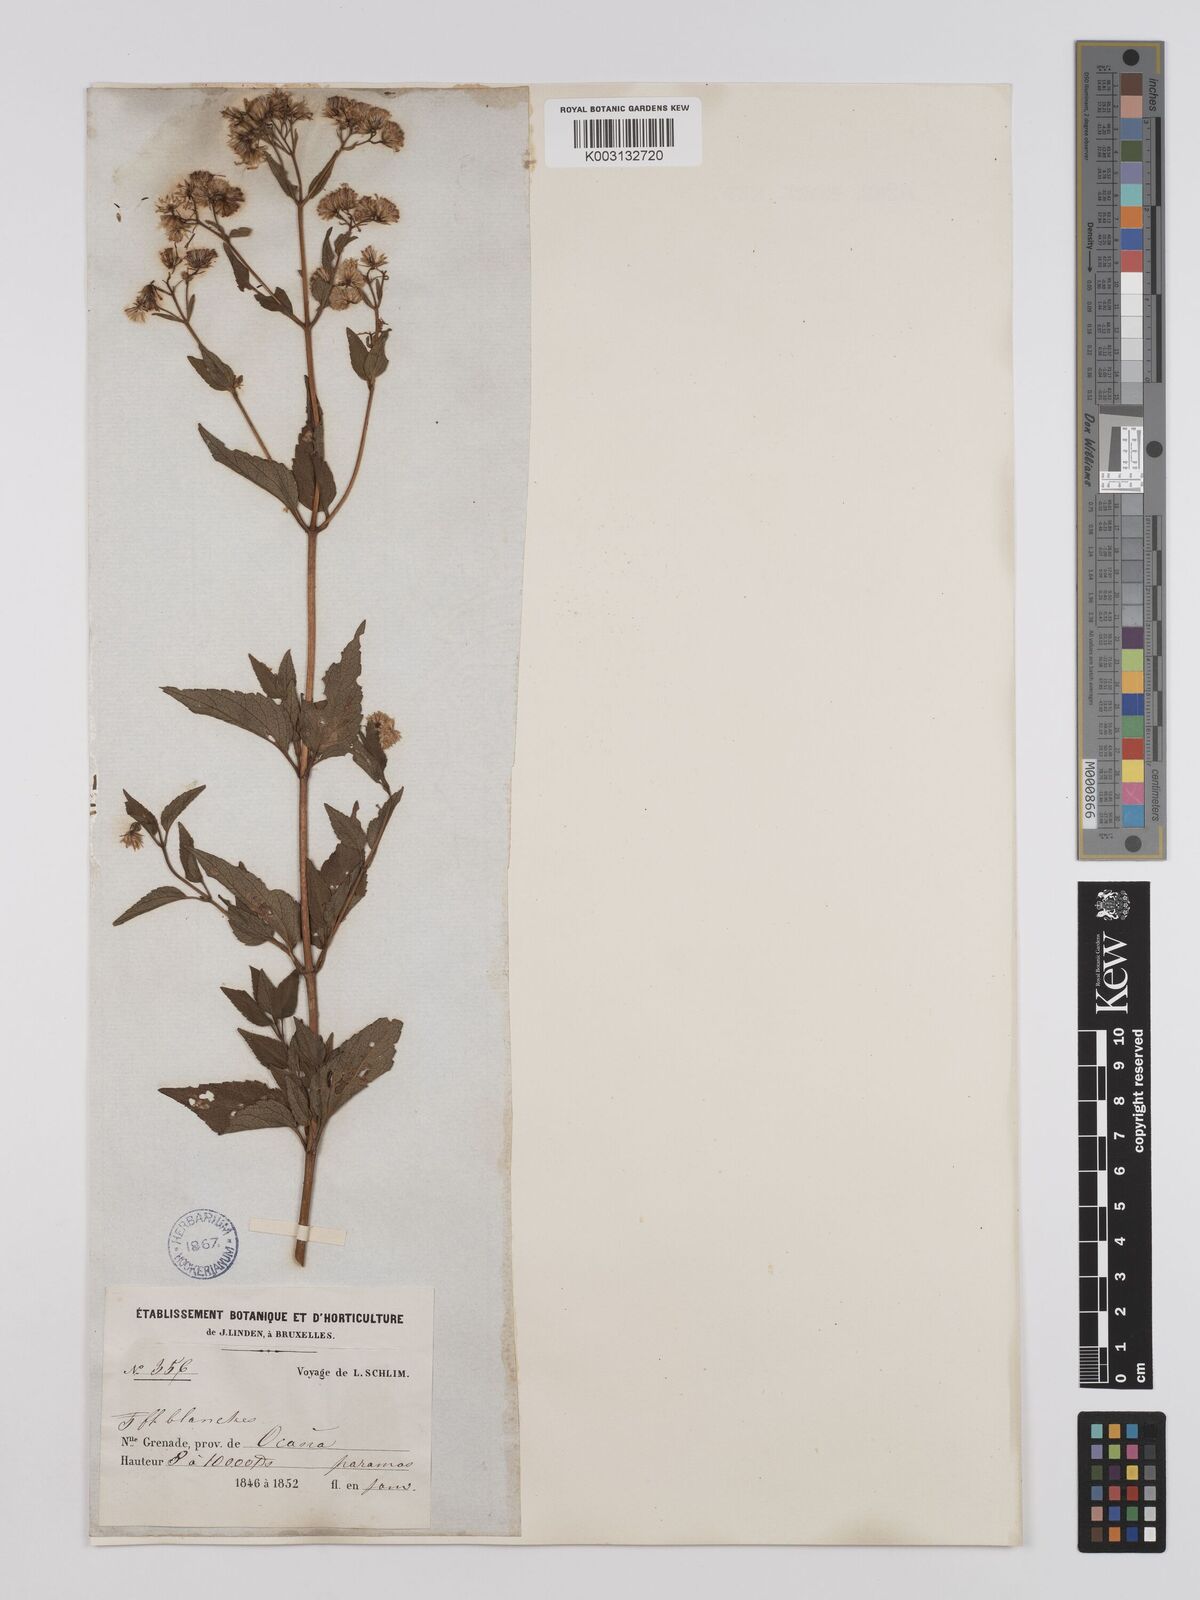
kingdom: Plantae
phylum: Tracheophyta
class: Magnoliopsida
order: Asterales
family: Asteraceae
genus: Ageratina
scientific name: Ageratina gracilis
